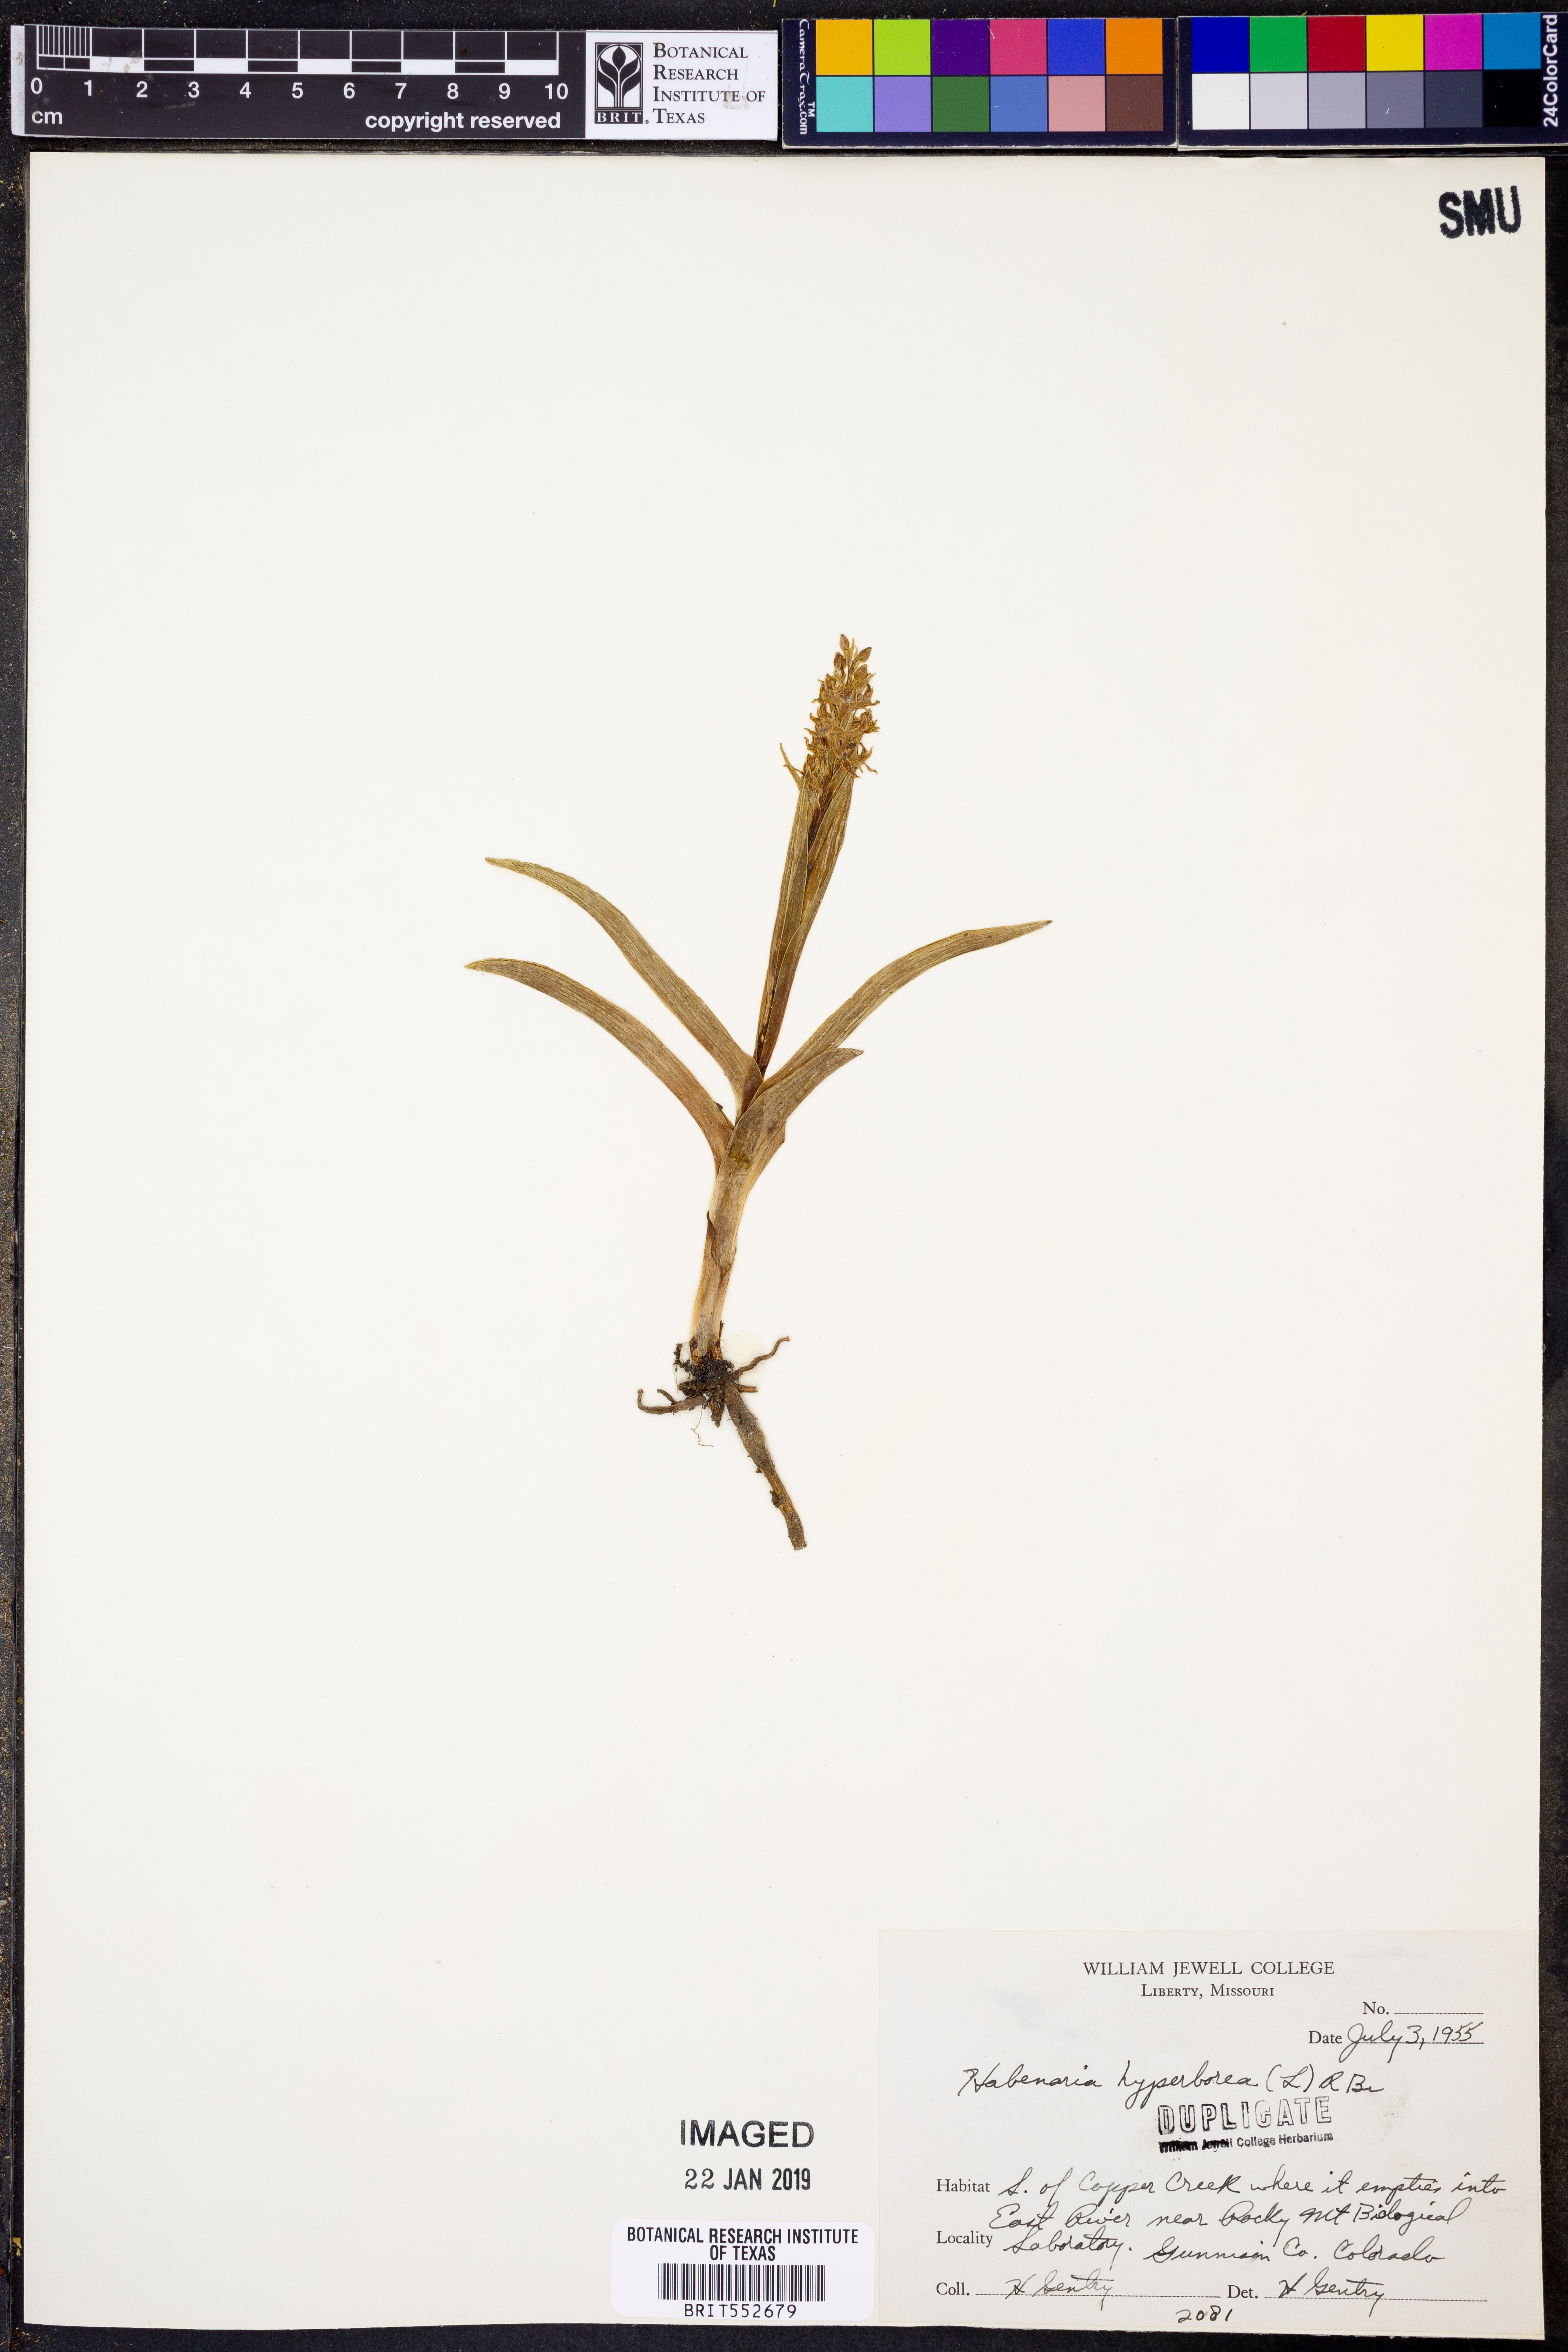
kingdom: Plantae
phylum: Tracheophyta
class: Liliopsida
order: Asparagales
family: Orchidaceae
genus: Platanthera
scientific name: Platanthera hyperborea
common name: Northern green orchid
